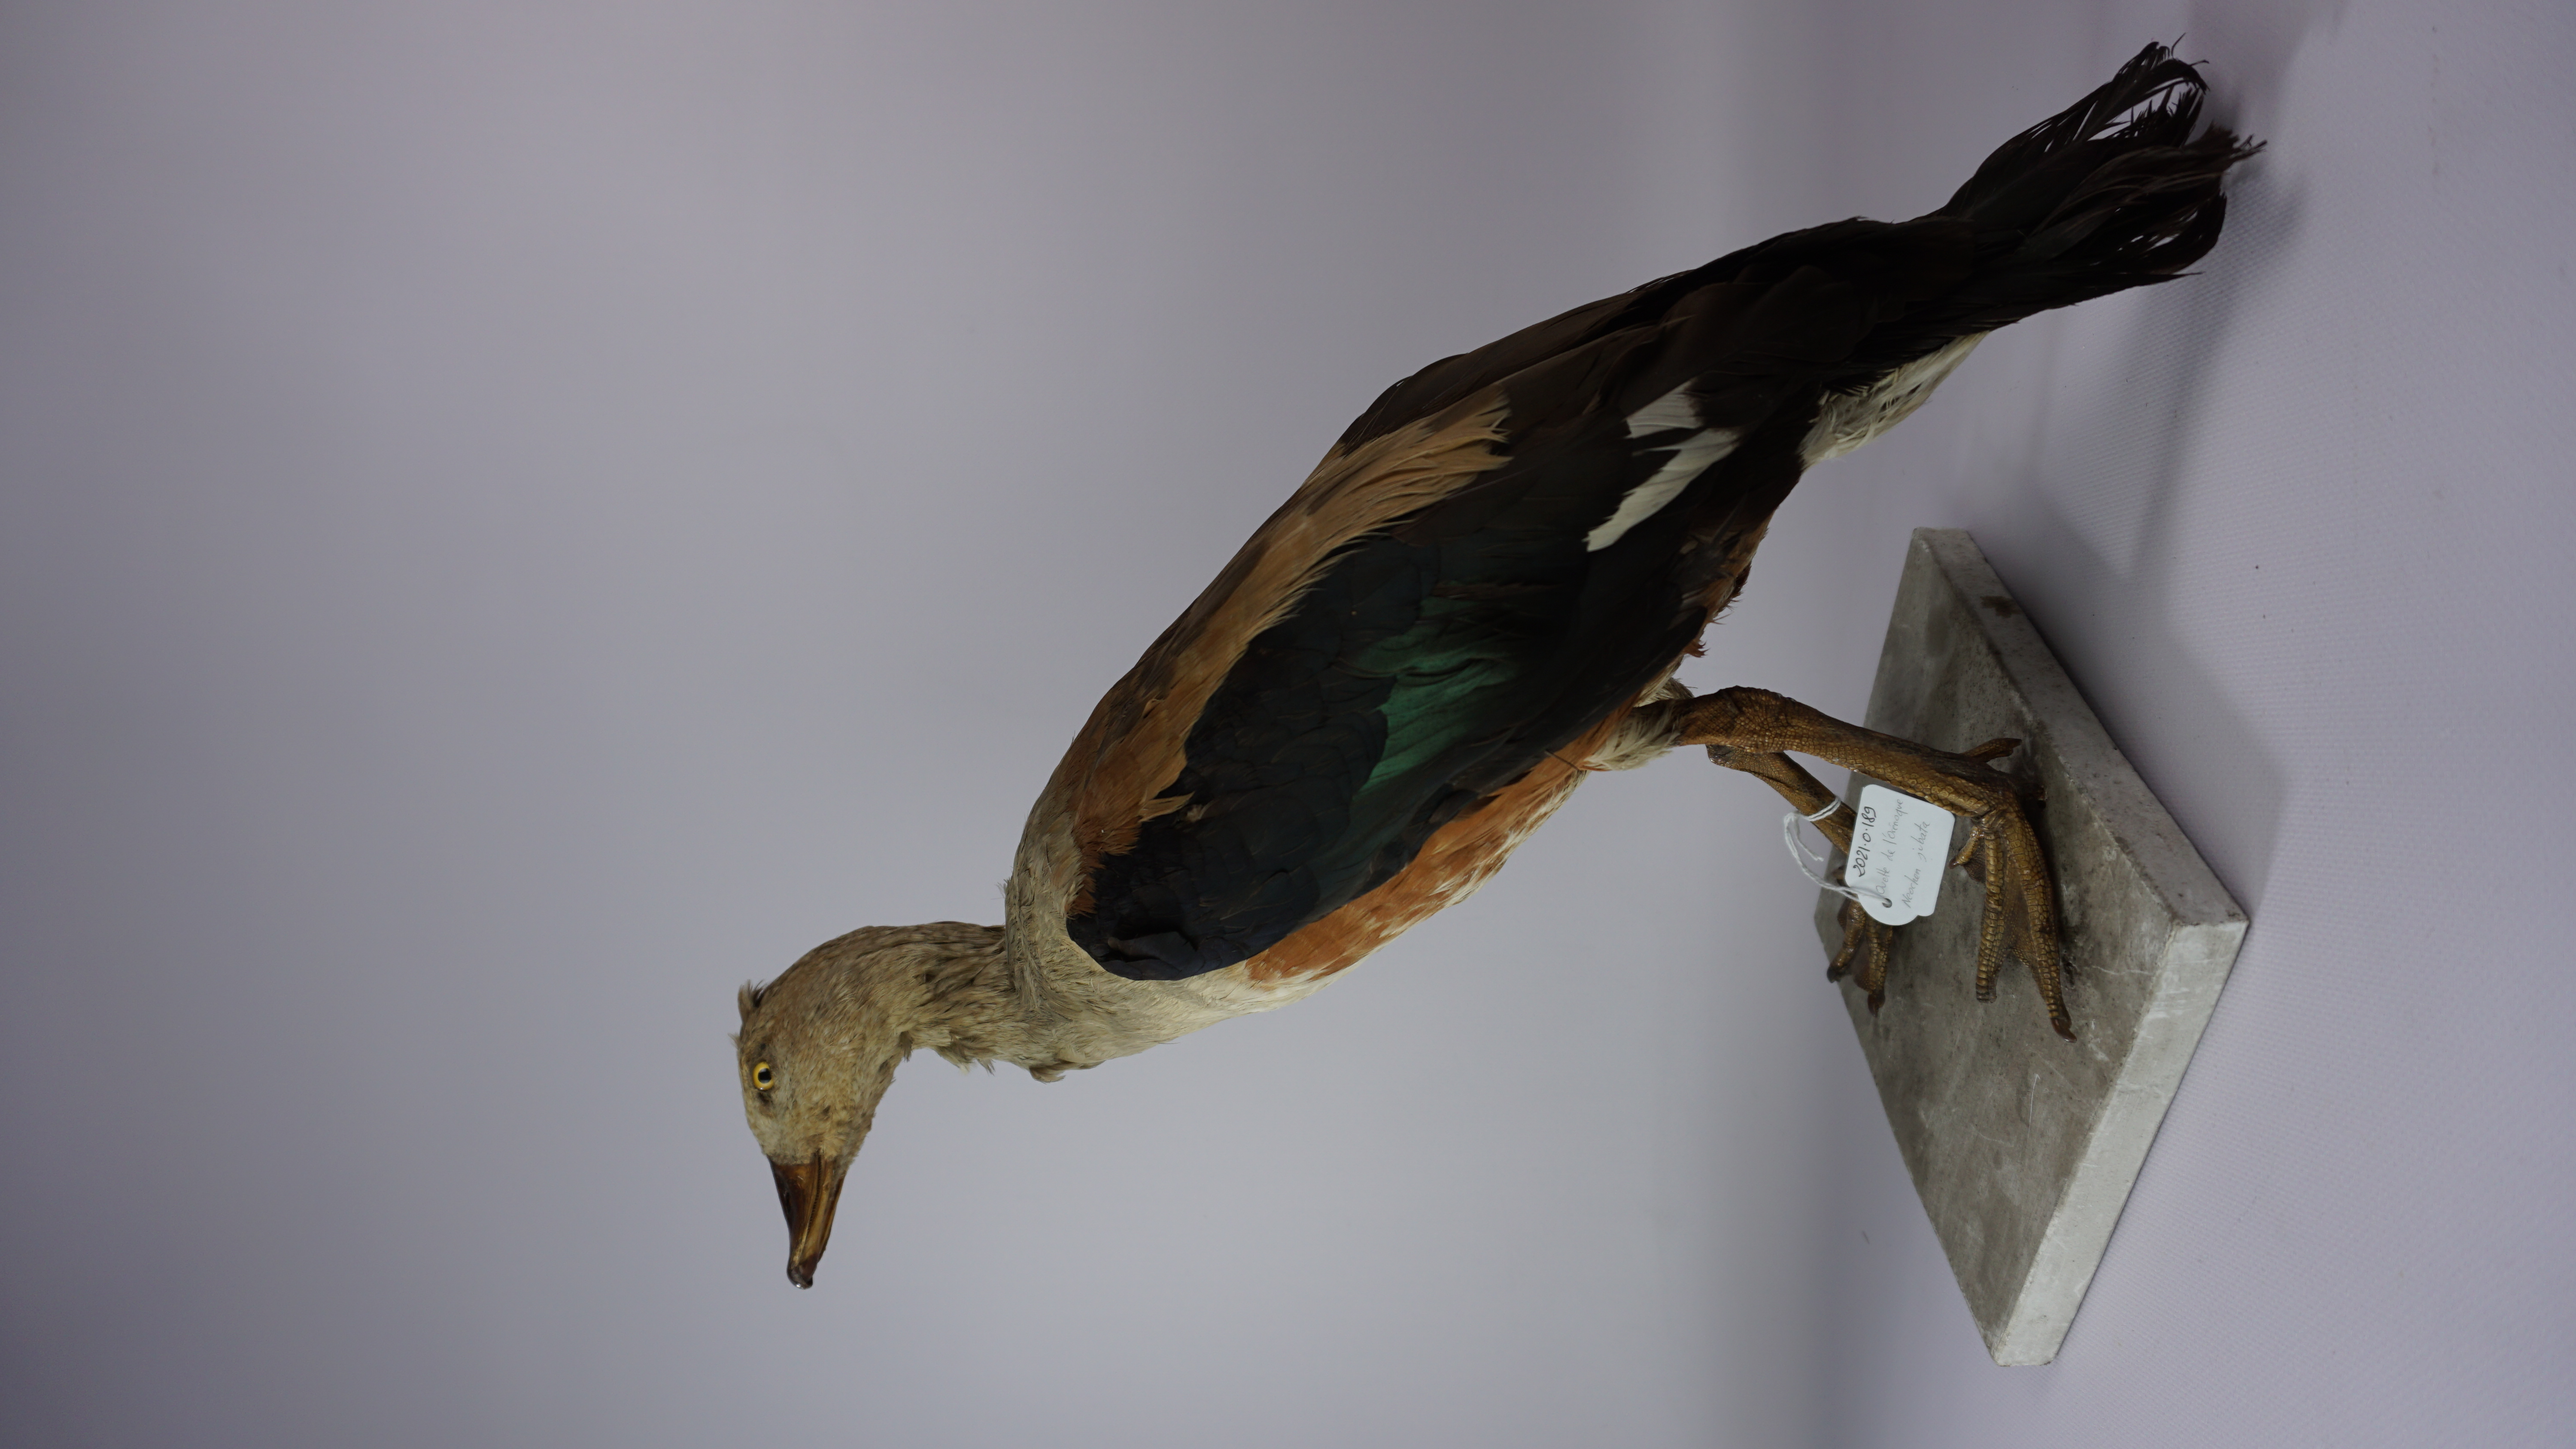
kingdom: Animalia
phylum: Chordata
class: Aves
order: Anseriformes
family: Anatidae
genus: Neochen
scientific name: Neochen jubata
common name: Orinoco goose
